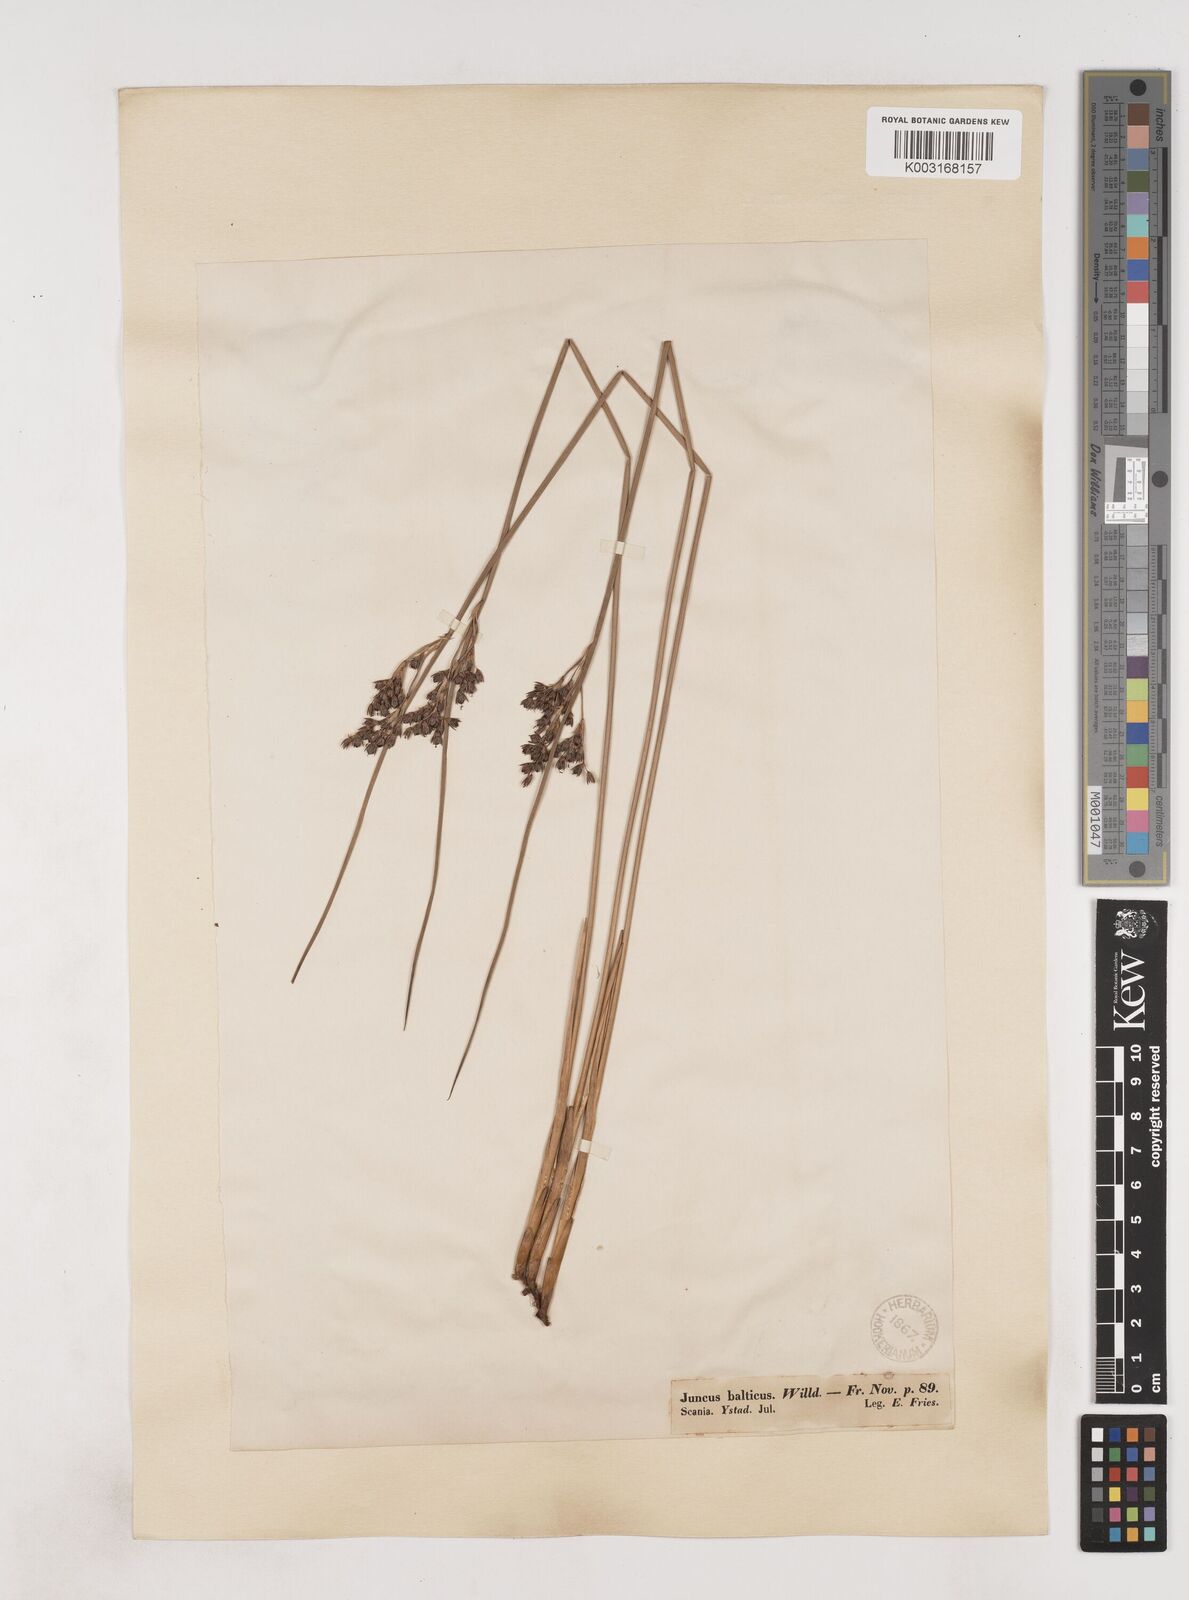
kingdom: Plantae
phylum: Tracheophyta
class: Liliopsida
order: Poales
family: Juncaceae
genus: Juncus
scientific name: Juncus balticus
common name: Baltic rush
